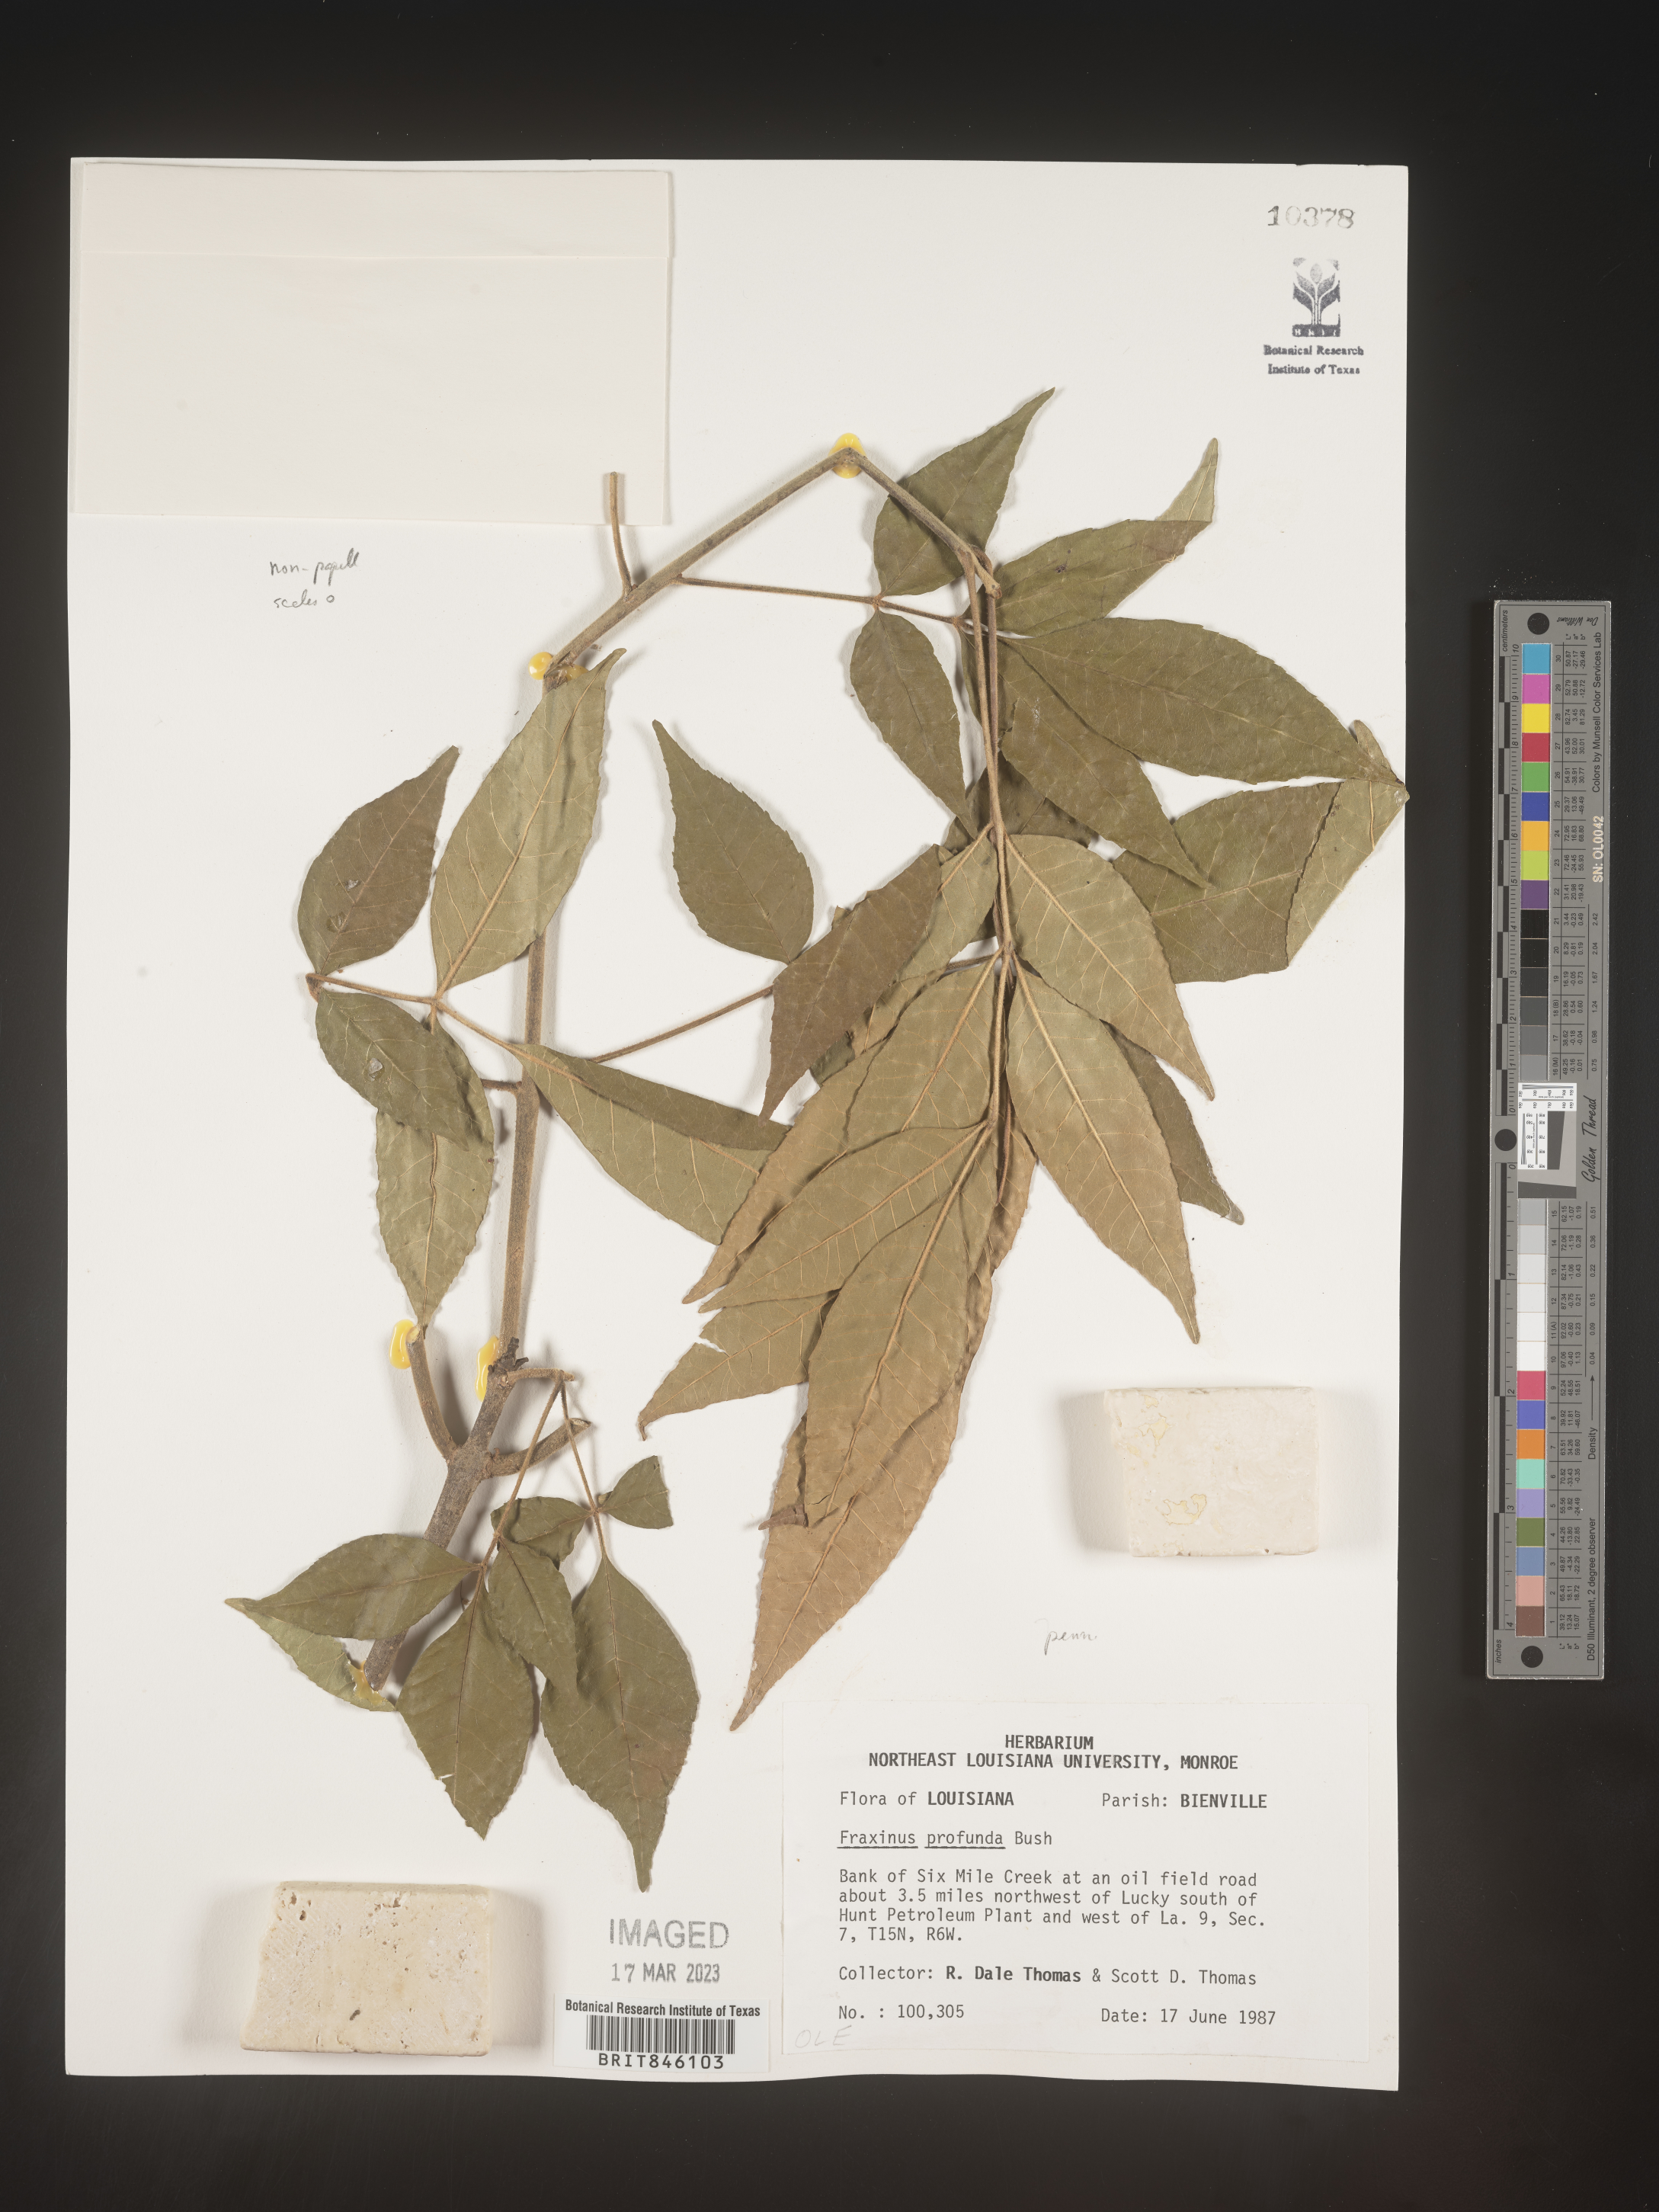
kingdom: Plantae
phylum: Tracheophyta
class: Magnoliopsida
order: Lamiales
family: Oleaceae
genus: Fraxinus
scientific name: Fraxinus pennsylvanica
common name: Green ash
